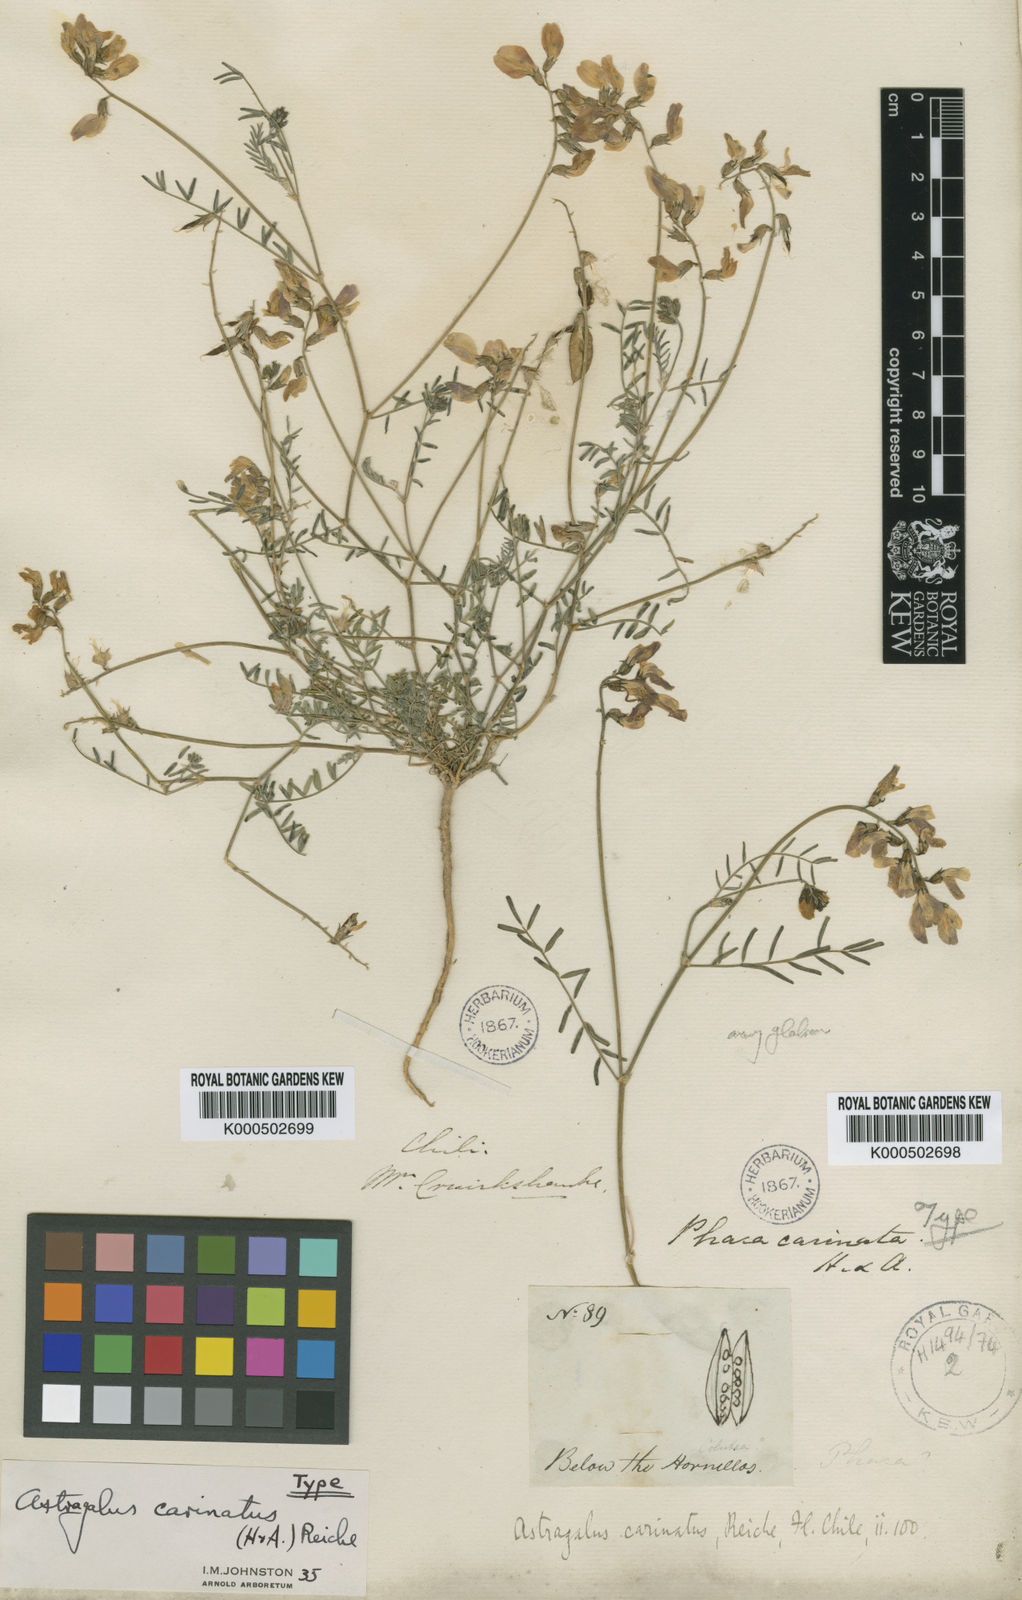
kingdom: Plantae
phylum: Tracheophyta
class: Magnoliopsida
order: Fabales
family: Fabaceae
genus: Astragalus
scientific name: Astragalus chamissonis
